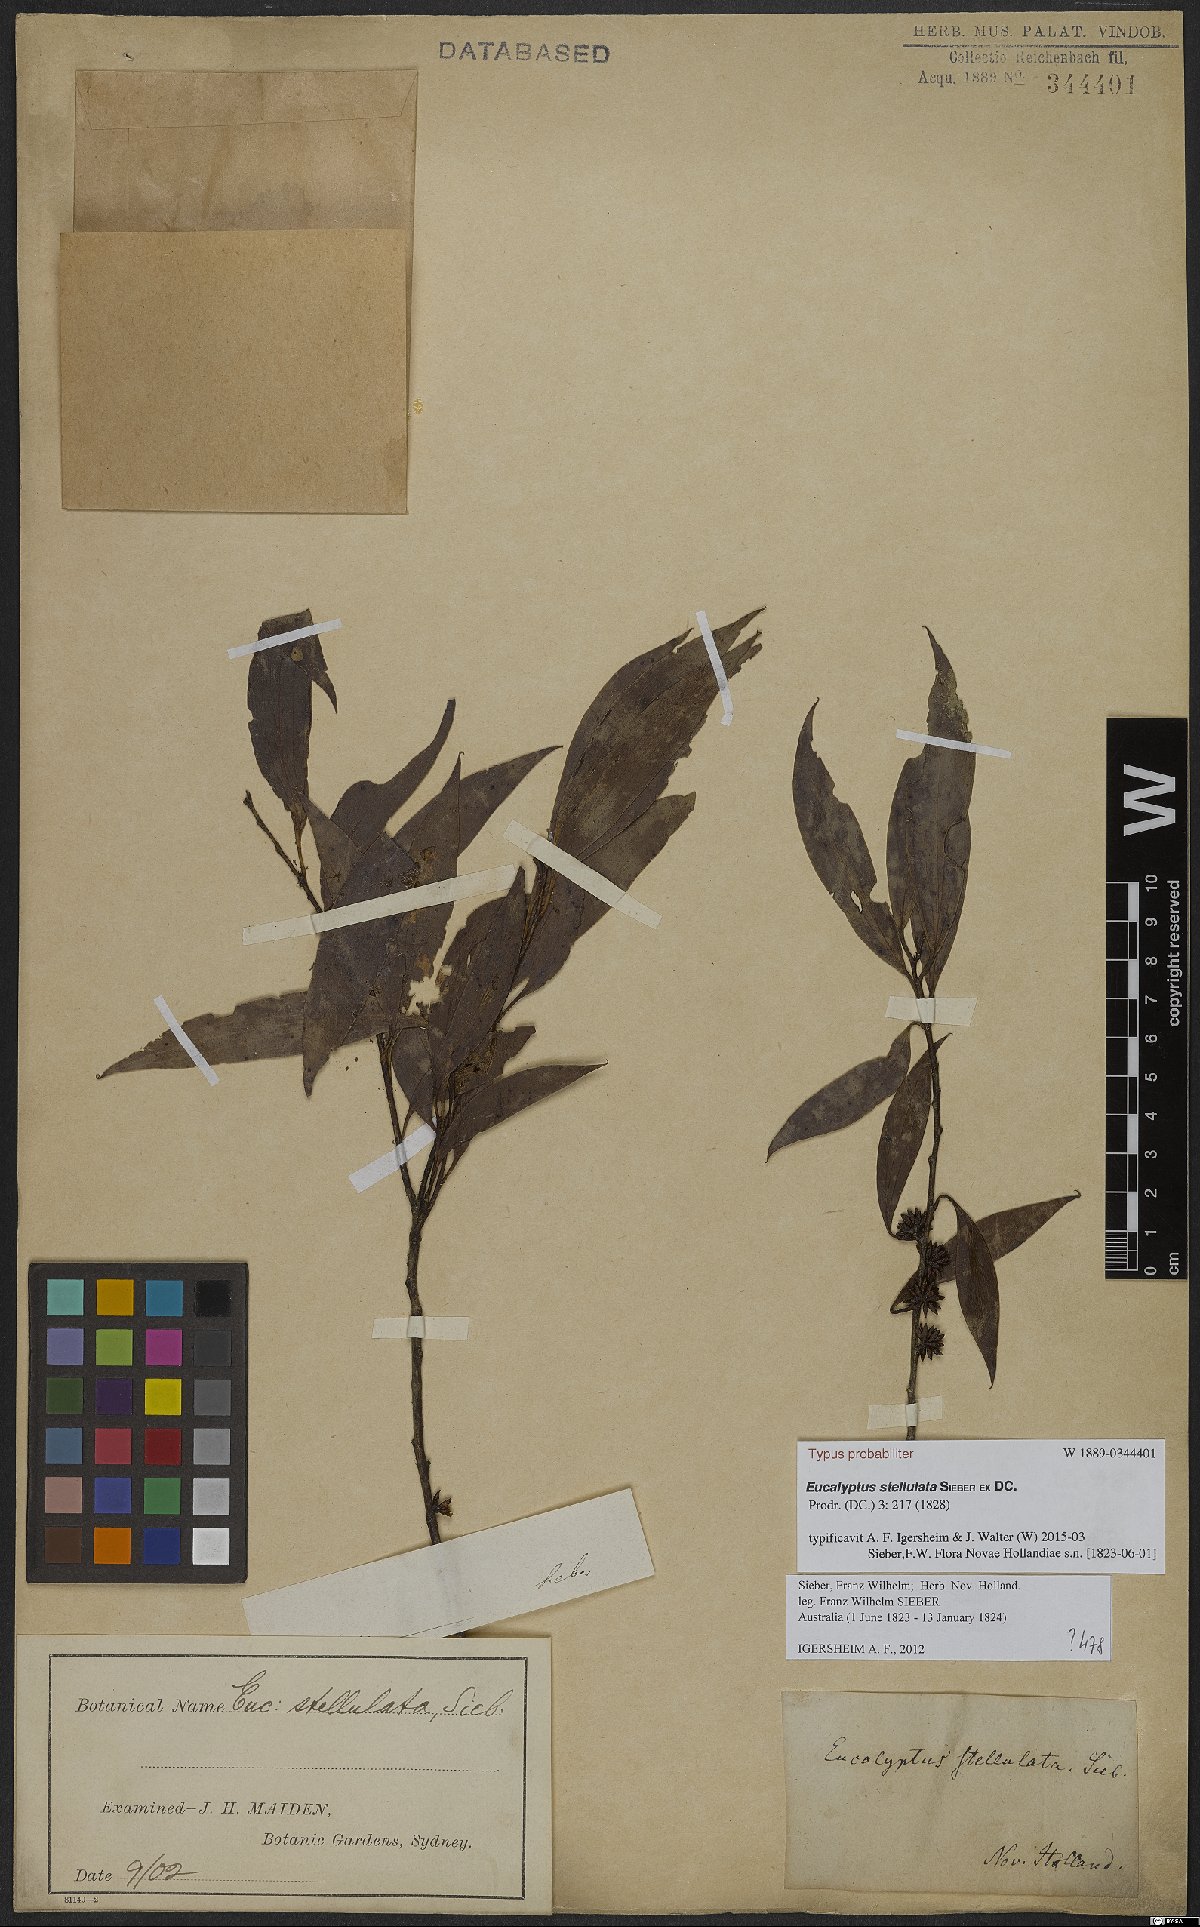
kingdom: Plantae
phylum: Tracheophyta
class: Magnoliopsida
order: Myrtales
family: Myrtaceae
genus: Eucalyptus
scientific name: Eucalyptus stellulata
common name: Black sallee
